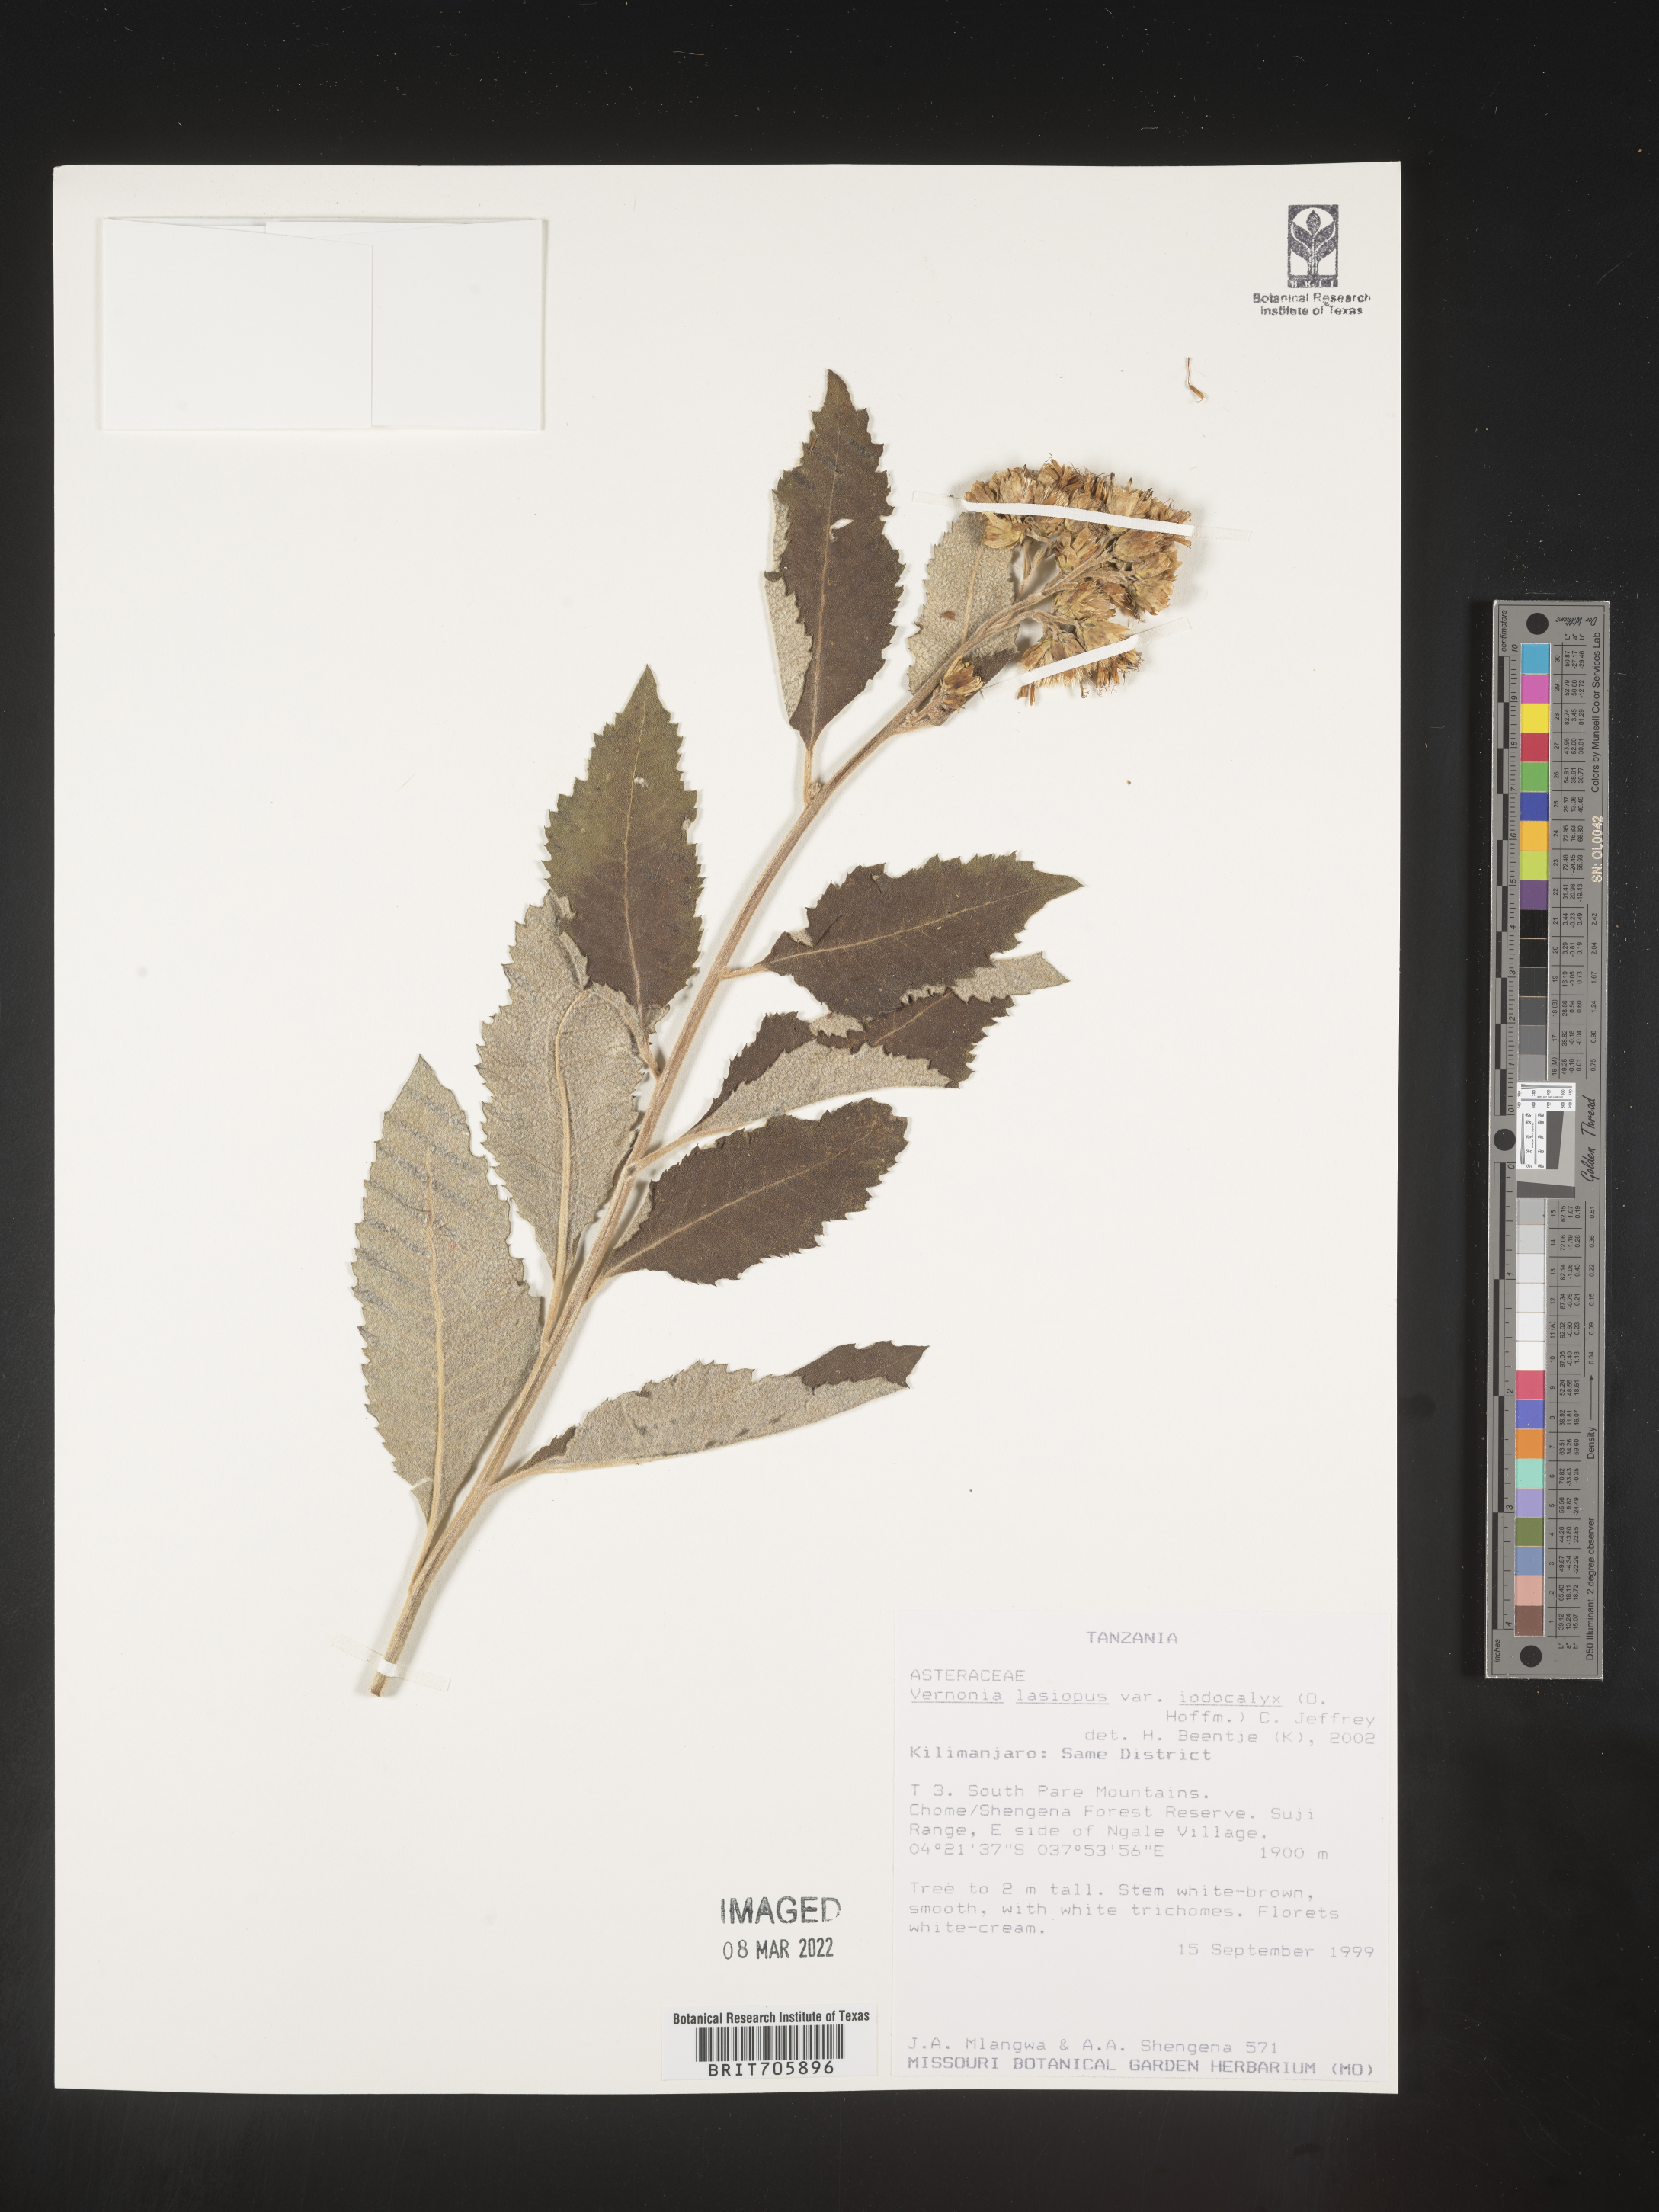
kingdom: Plantae
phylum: Tracheophyta
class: Magnoliopsida
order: Asterales
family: Asteraceae
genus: Vernonia
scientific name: Vernonia
